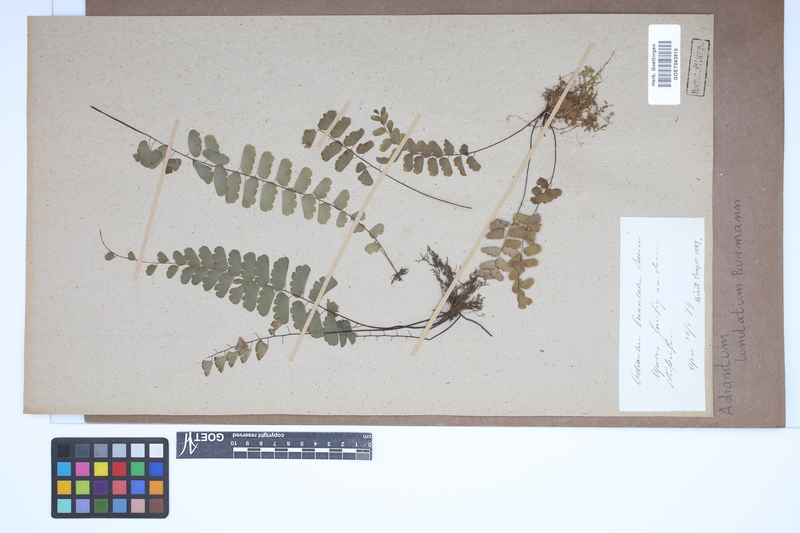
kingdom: Plantae
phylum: Tracheophyta
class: Polypodiopsida
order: Polypodiales
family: Pteridaceae
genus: Adiantum
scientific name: Adiantum philippense
